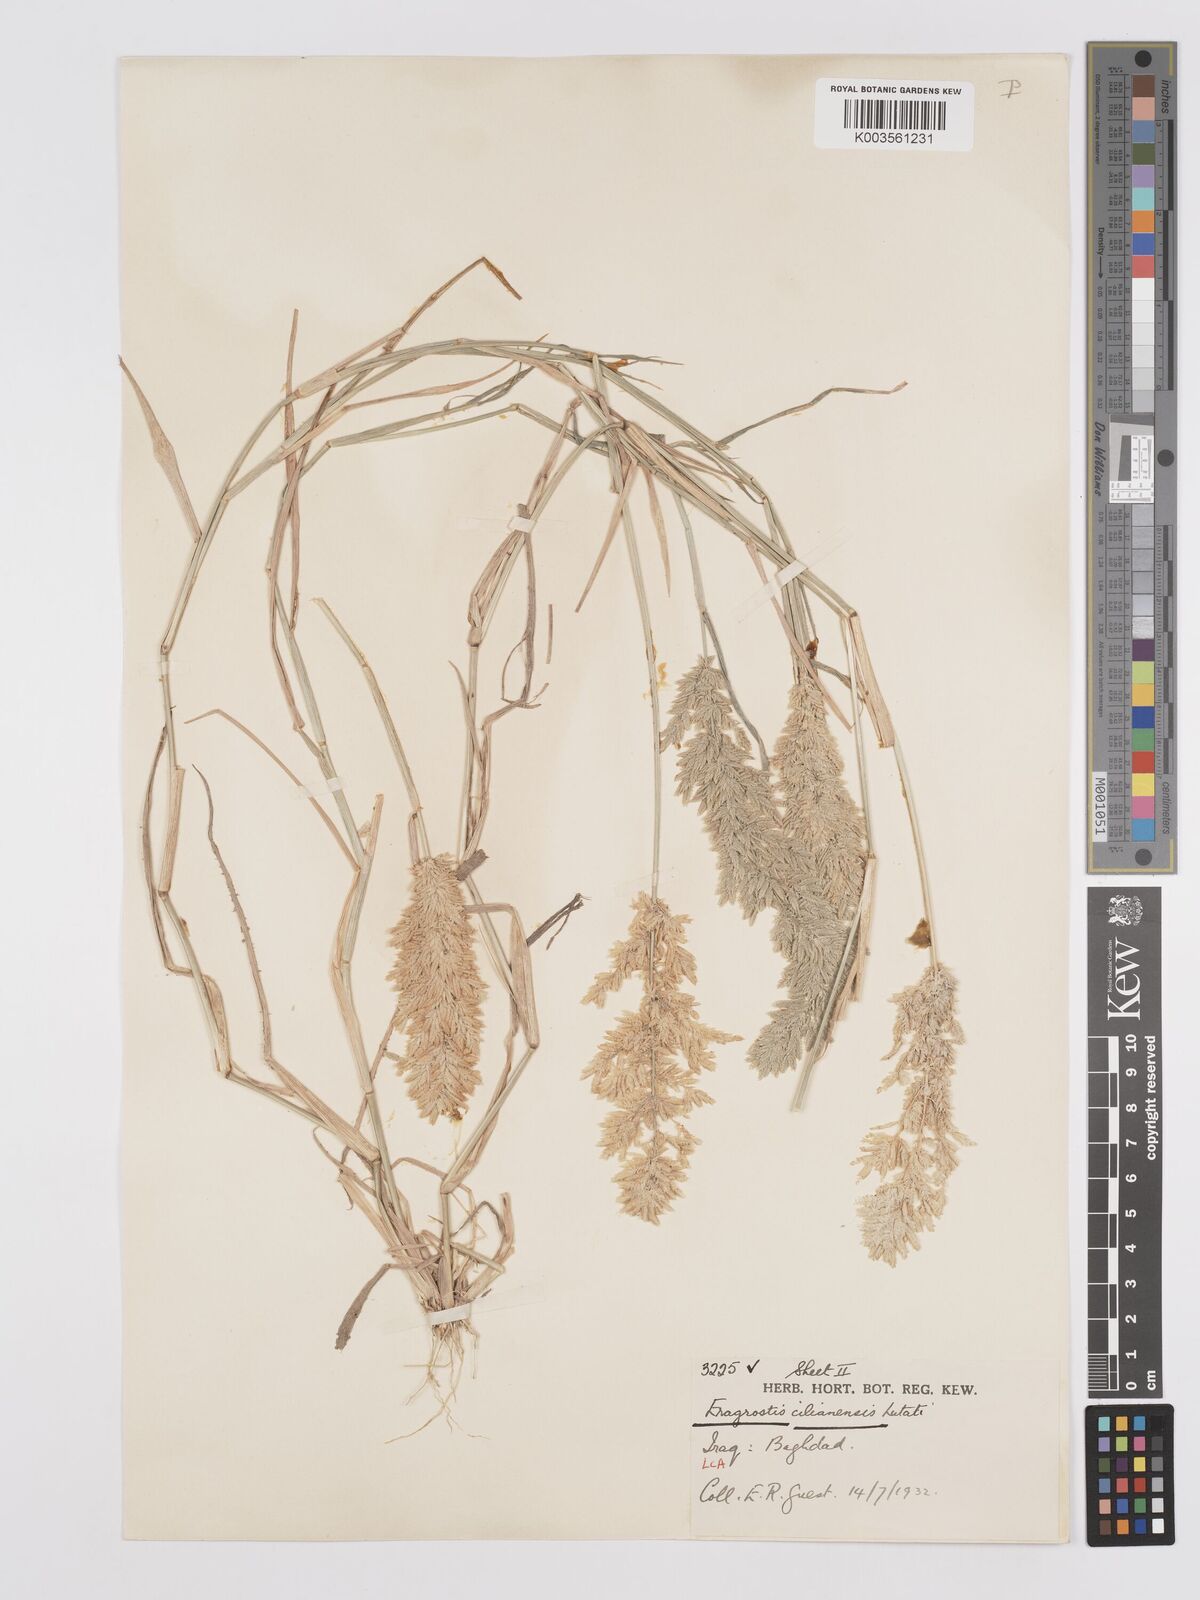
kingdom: Plantae
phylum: Tracheophyta
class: Liliopsida
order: Poales
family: Poaceae
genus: Eragrostis
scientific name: Eragrostis cilianensis
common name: Stinkgrass
